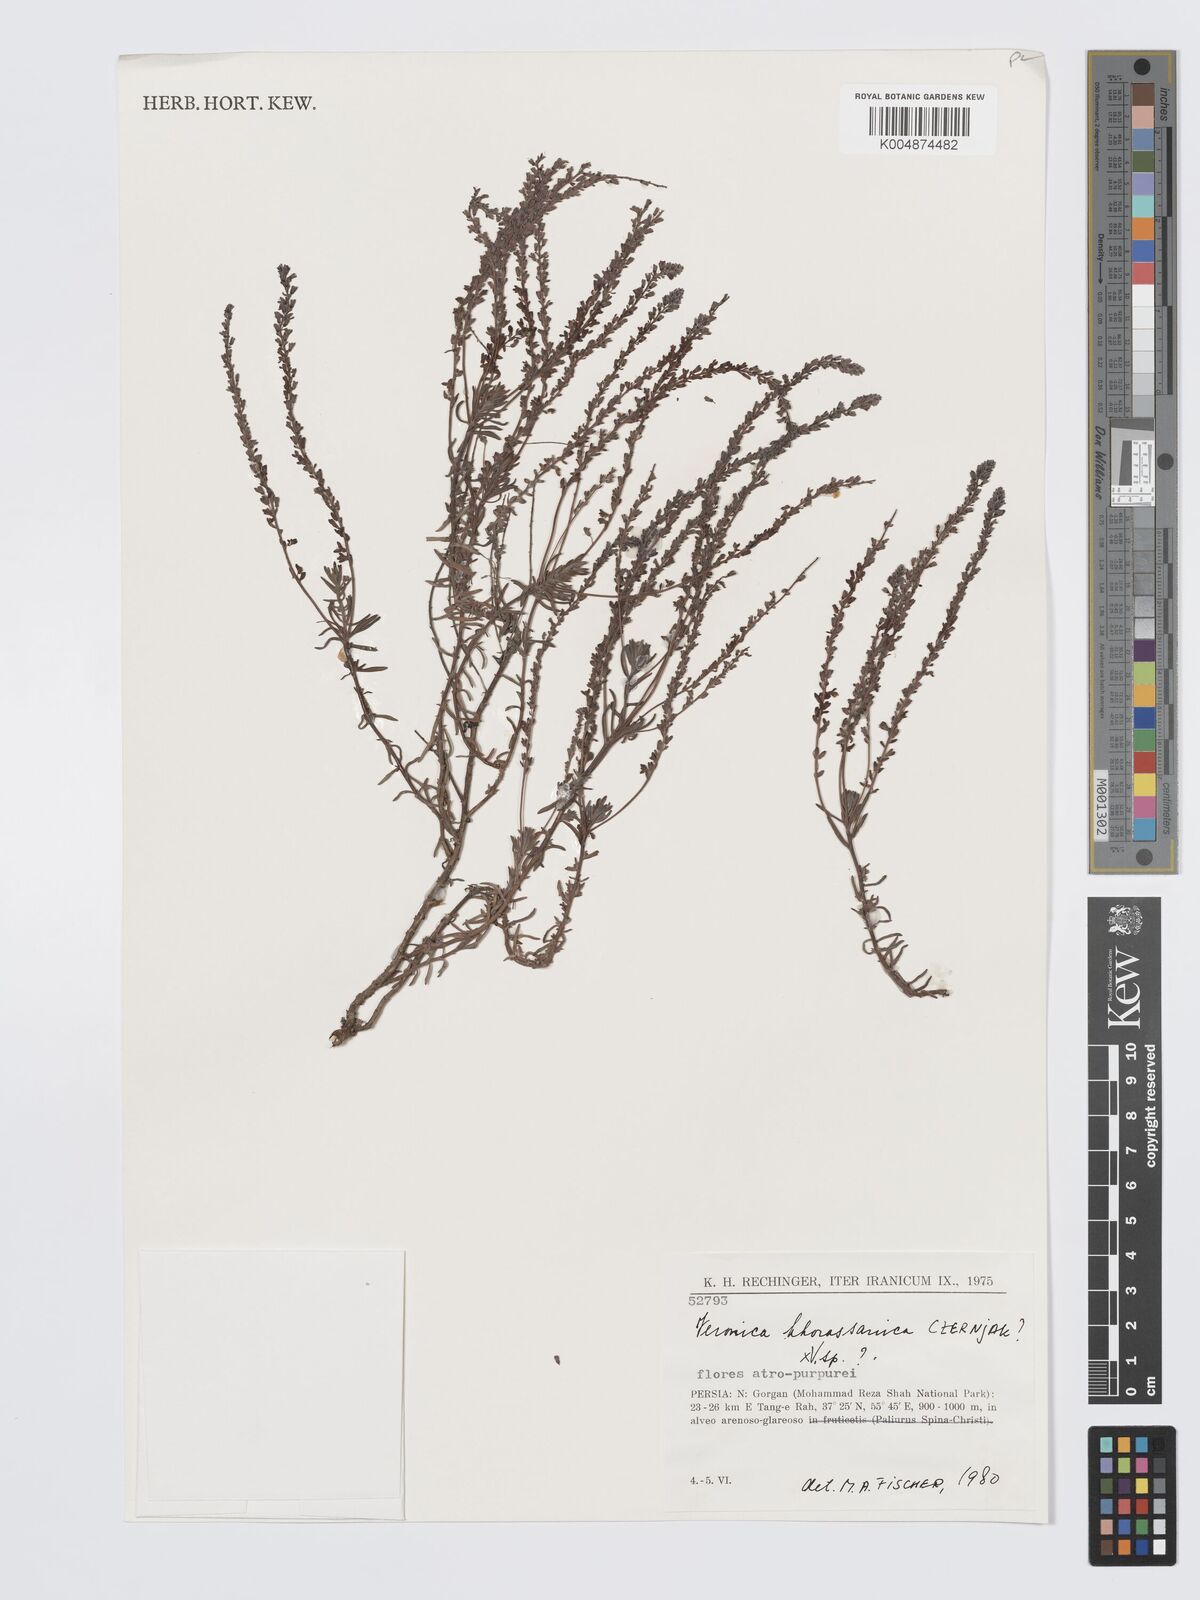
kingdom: Plantae
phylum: Tracheophyta
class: Magnoliopsida
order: Lamiales
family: Plantaginaceae
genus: Veronica
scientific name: Veronica khorassanica
